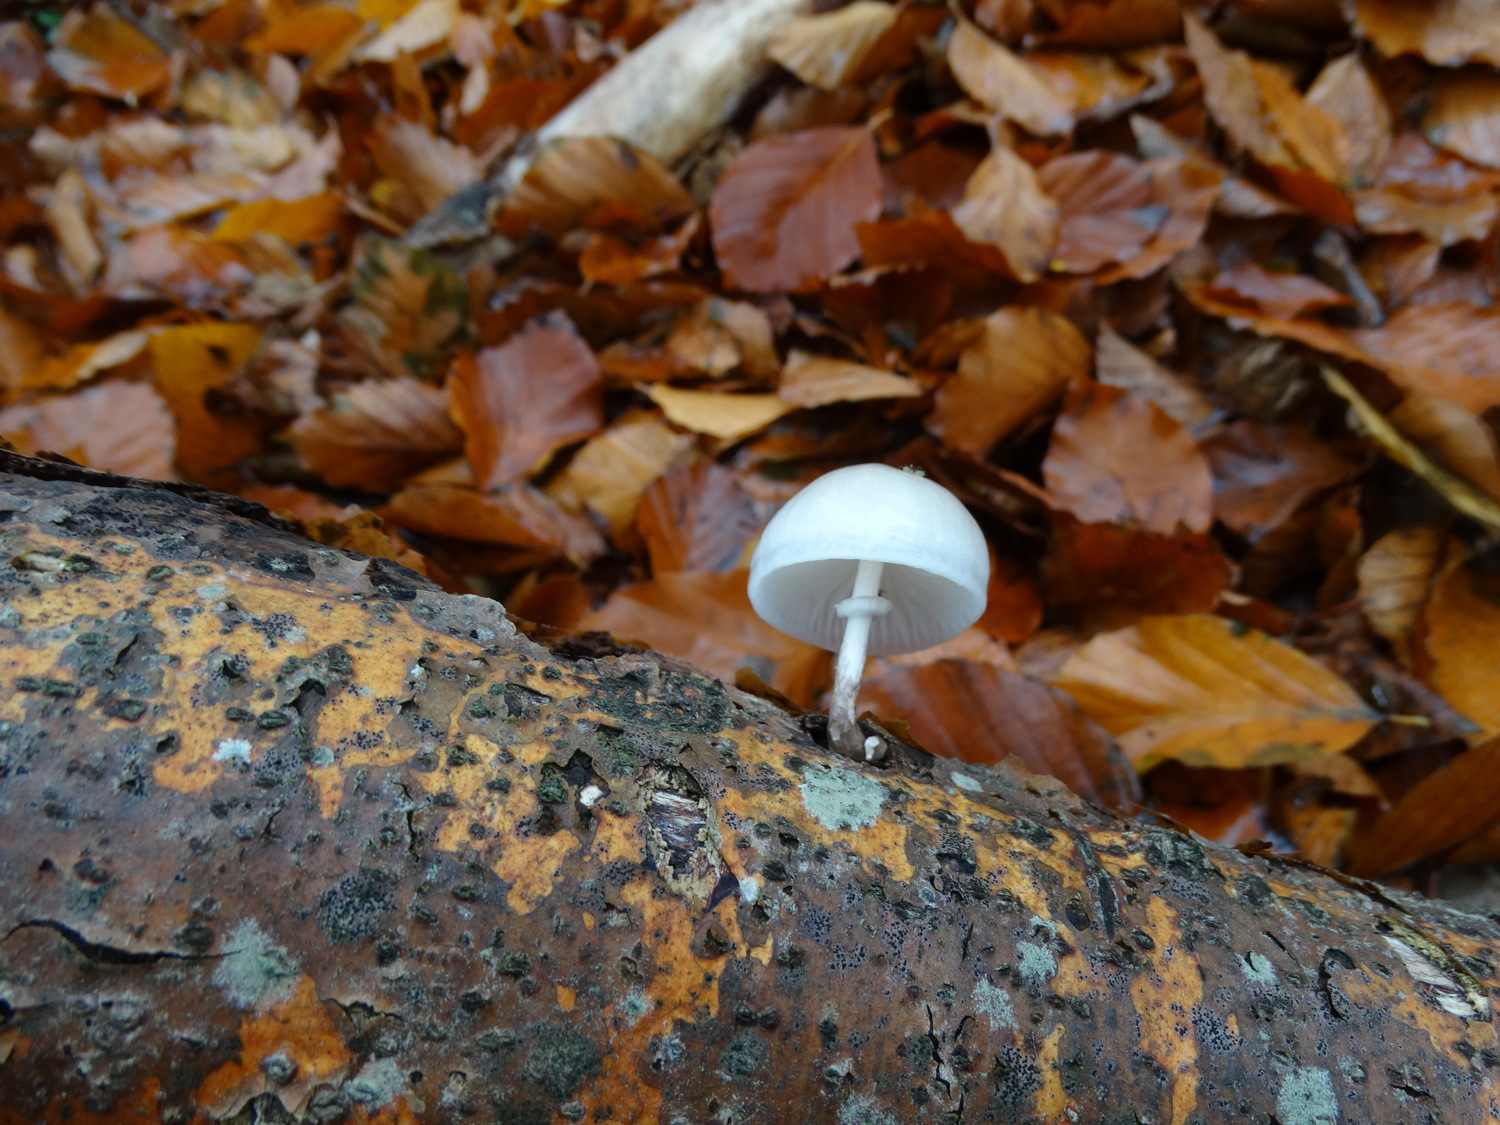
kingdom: Fungi
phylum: Basidiomycota
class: Agaricomycetes
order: Agaricales
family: Physalacriaceae
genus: Mucidula
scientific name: Mucidula mucida
